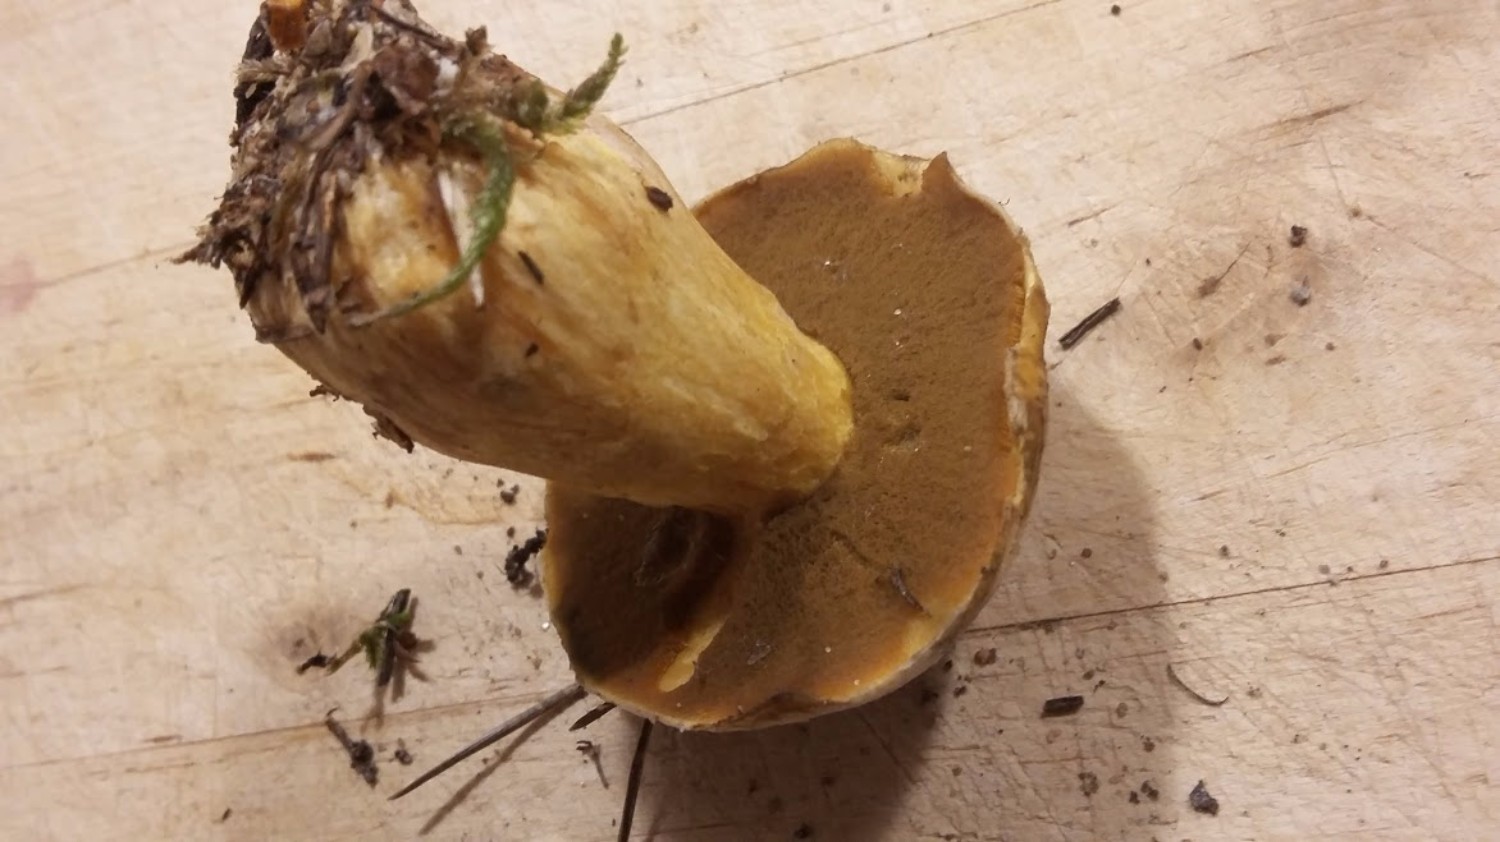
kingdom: Fungi
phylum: Basidiomycota
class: Agaricomycetes
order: Boletales
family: Suillaceae
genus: Suillus
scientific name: Suillus variegatus
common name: broget slimrørhat
